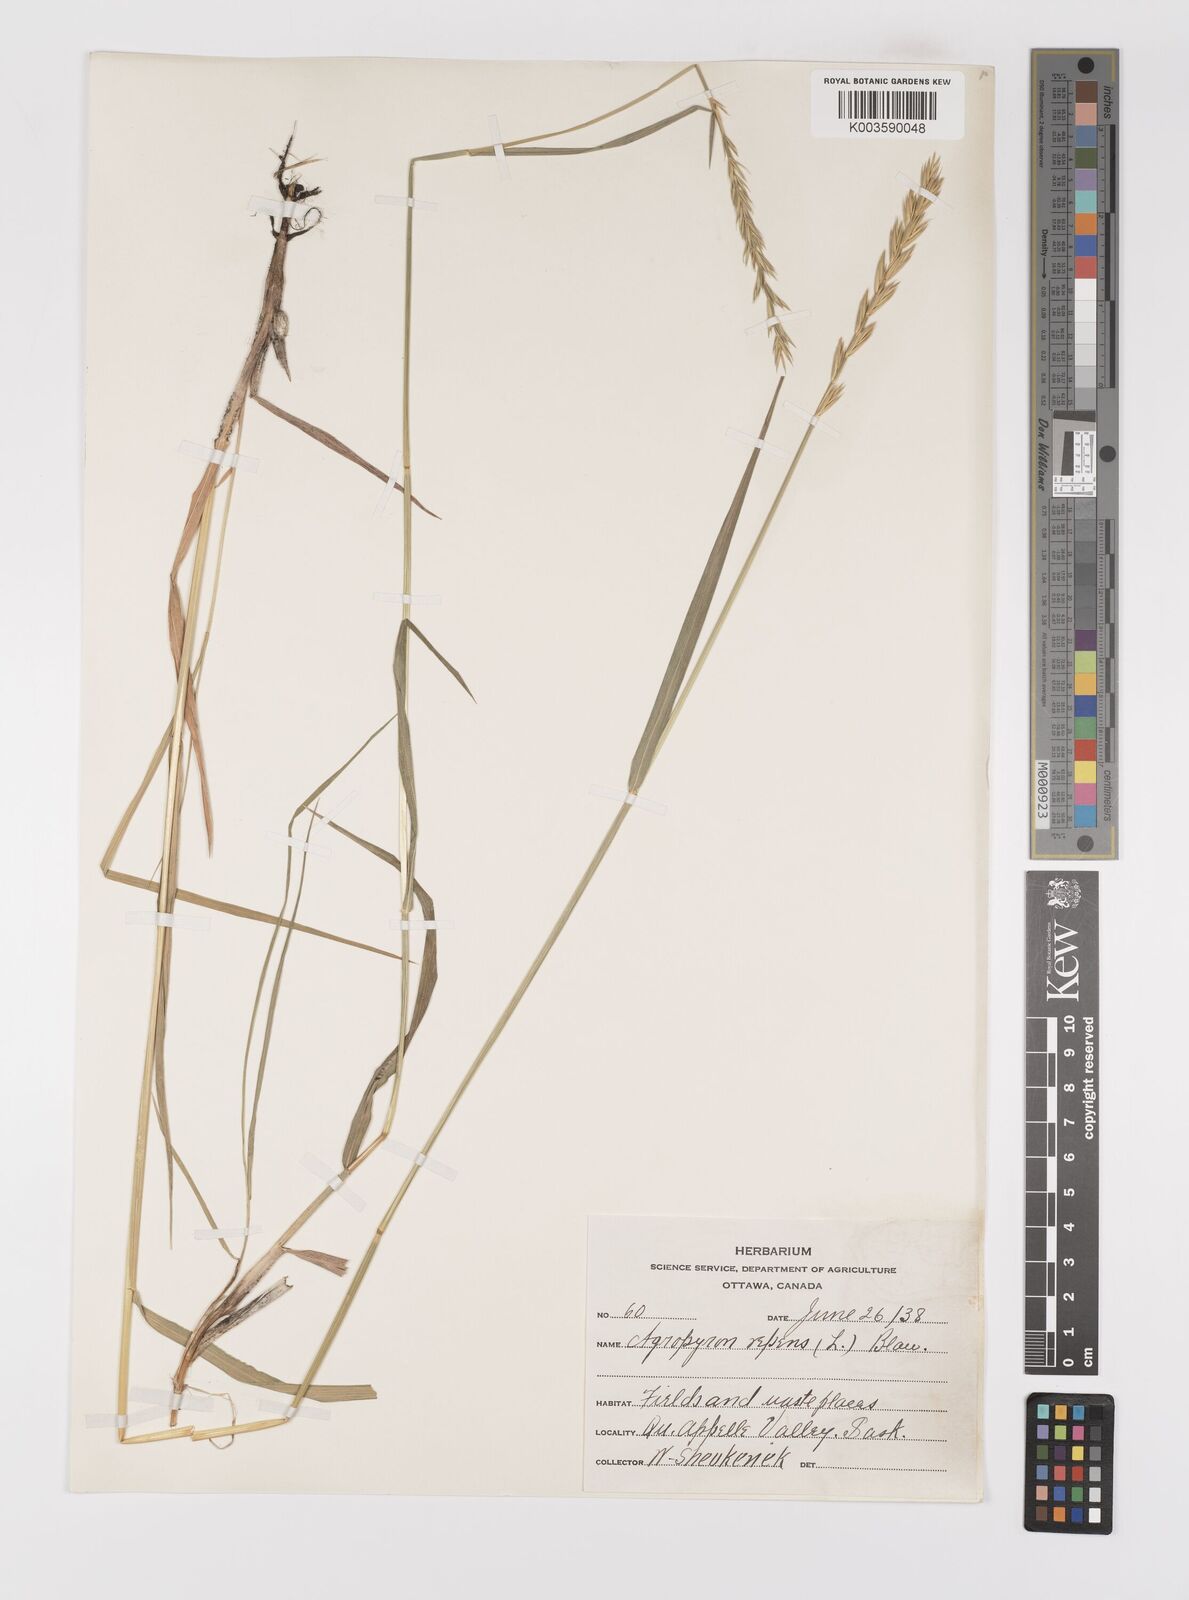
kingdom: Plantae
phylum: Tracheophyta
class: Liliopsida
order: Poales
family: Poaceae
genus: Elymus
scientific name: Elymus repens
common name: Quackgrass
